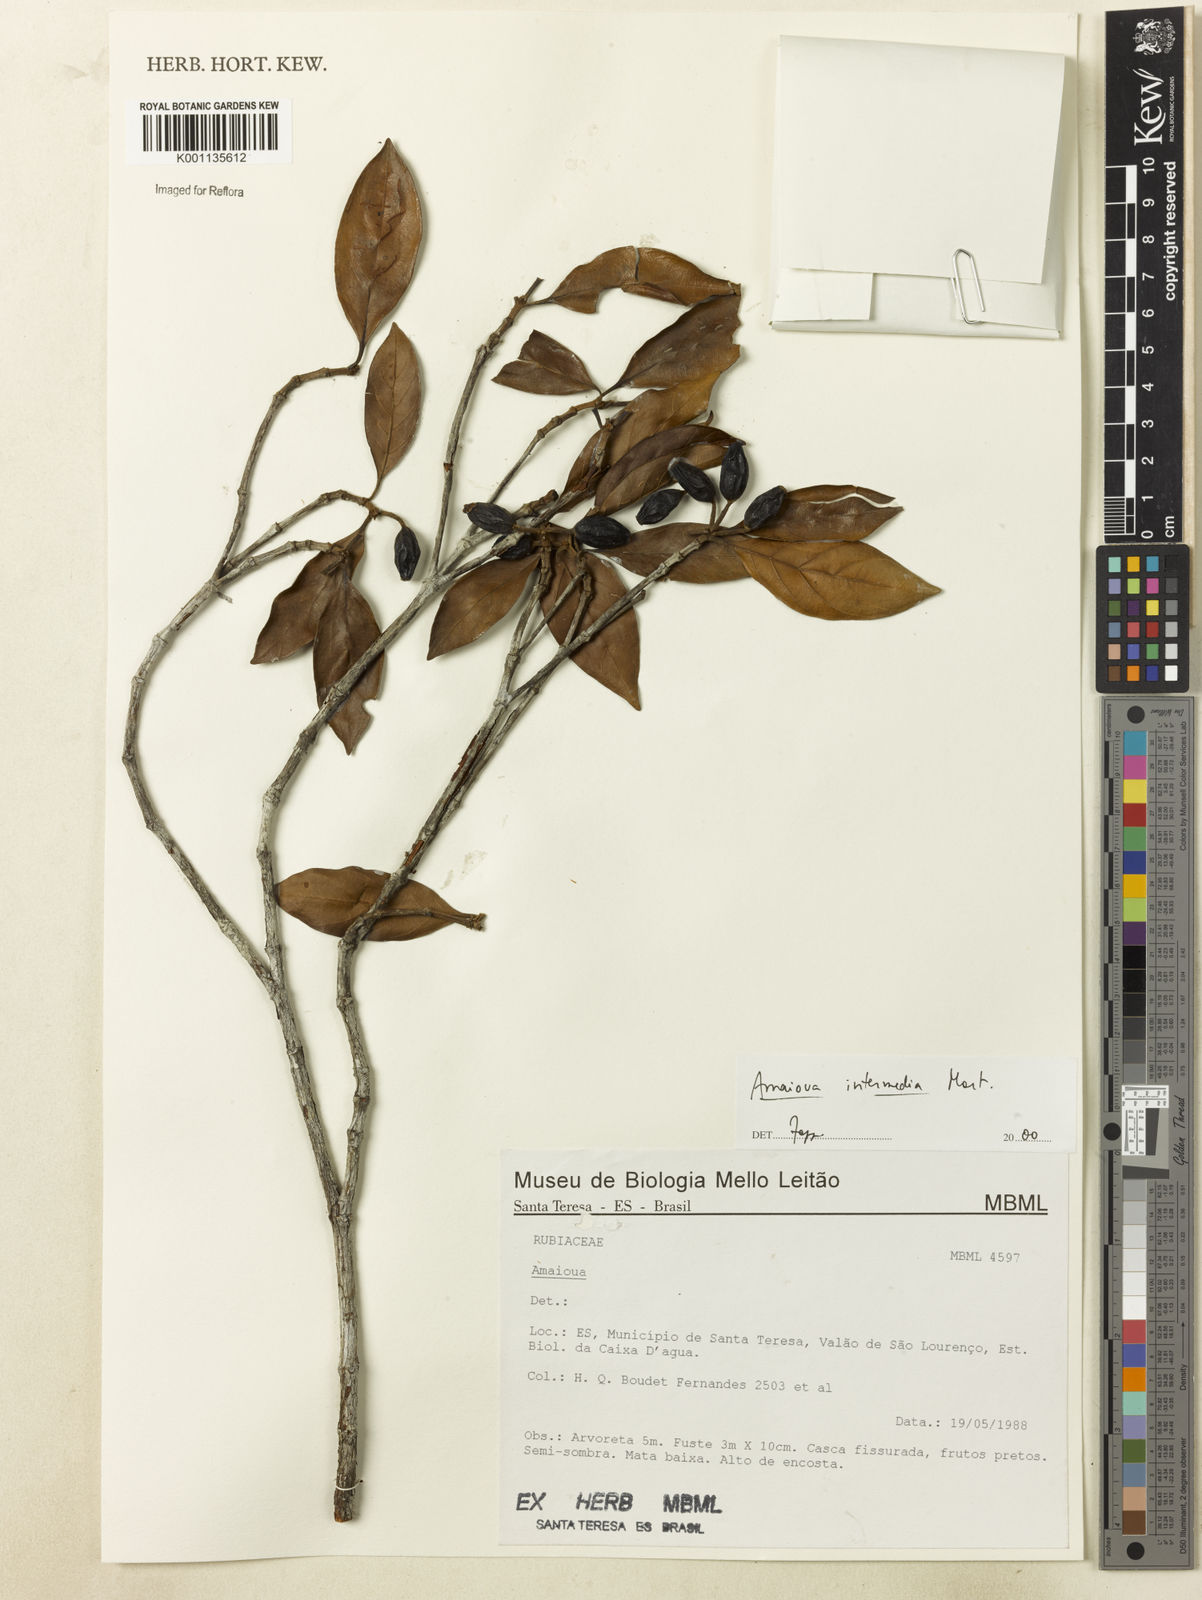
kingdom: Plantae
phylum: Tracheophyta
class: Magnoliopsida
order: Gentianales
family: Rubiaceae
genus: Amaioua
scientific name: Amaioua intermedia
